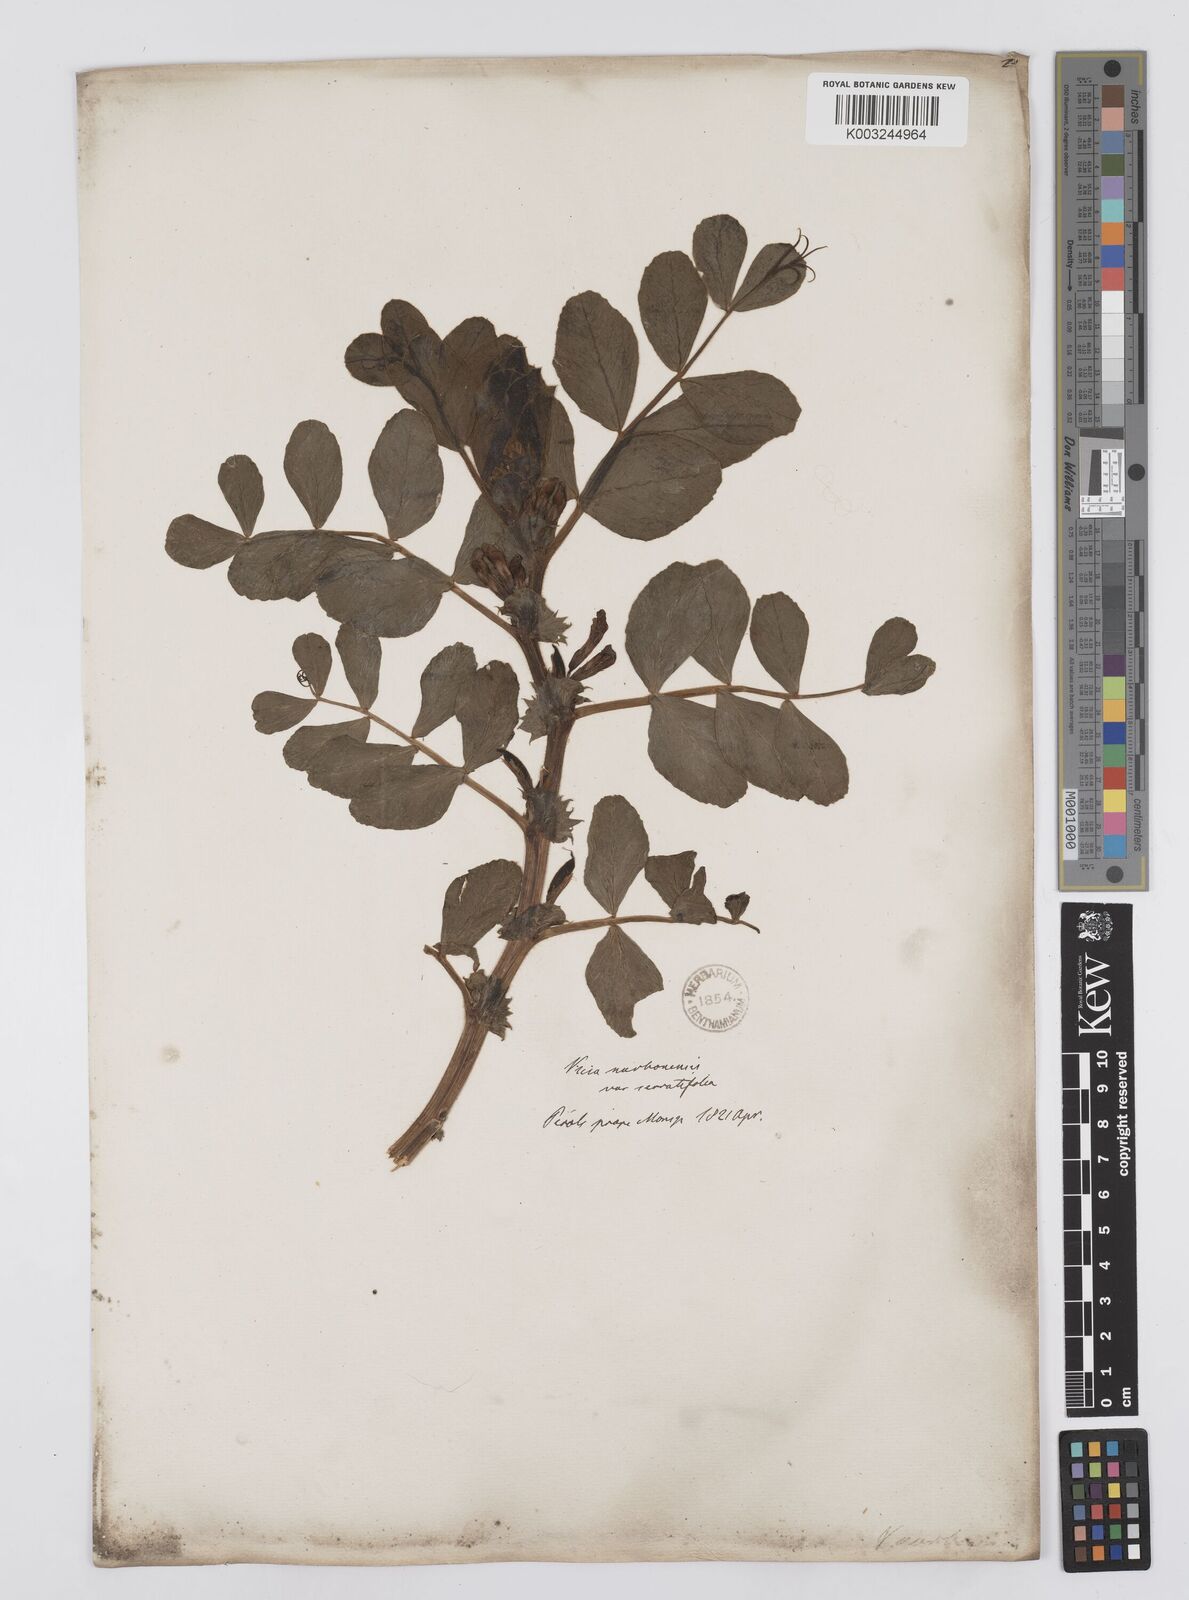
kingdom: Plantae
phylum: Tracheophyta
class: Magnoliopsida
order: Fabales
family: Fabaceae
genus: Vicia
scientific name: Vicia serratifolia
